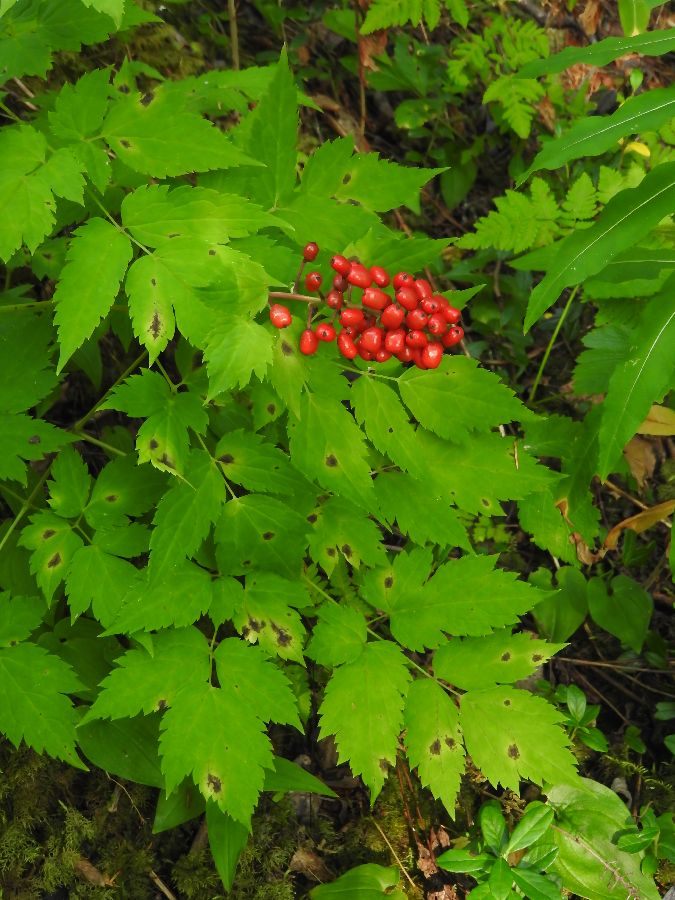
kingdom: Plantae
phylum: Tracheophyta
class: Magnoliopsida
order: Ranunculales
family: Ranunculaceae
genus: Actaea
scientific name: Actaea erythrocarpa
